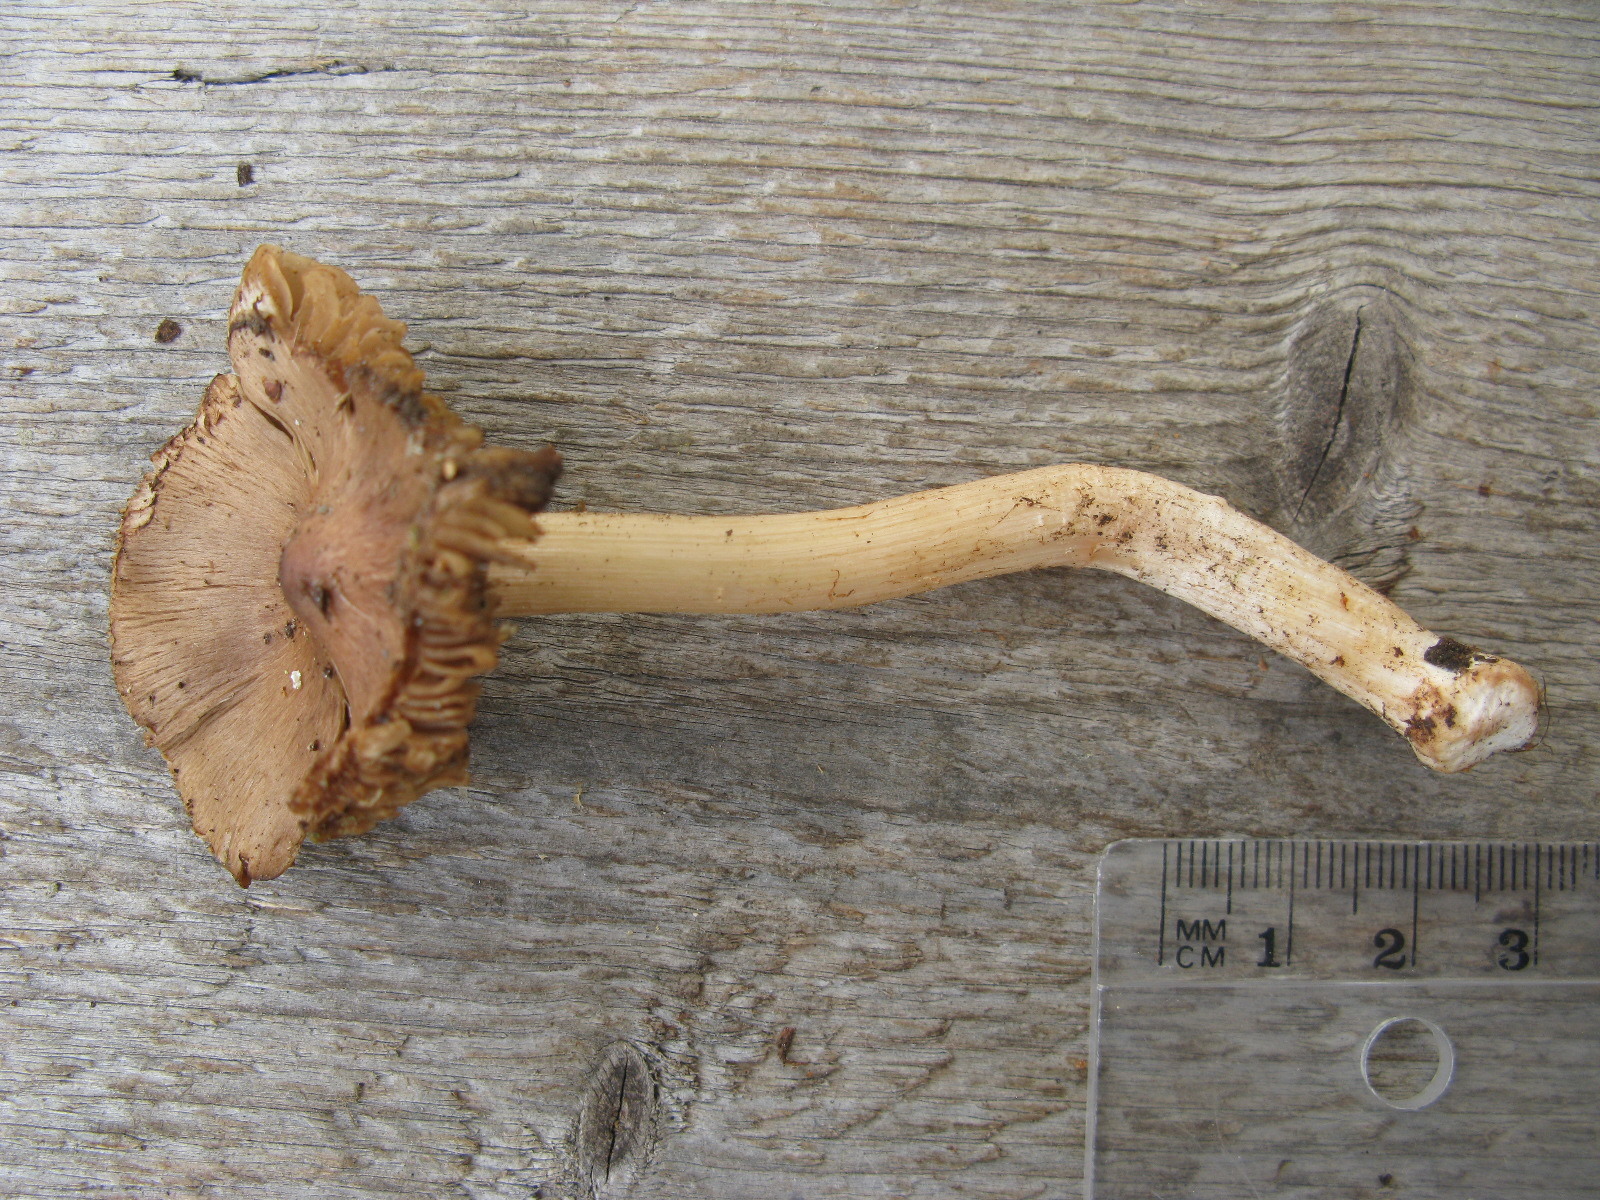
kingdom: Fungi
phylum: Basidiomycota
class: Agaricomycetes
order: Agaricales
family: Inocybaceae
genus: Inocybe
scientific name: Inocybe subcarpta
